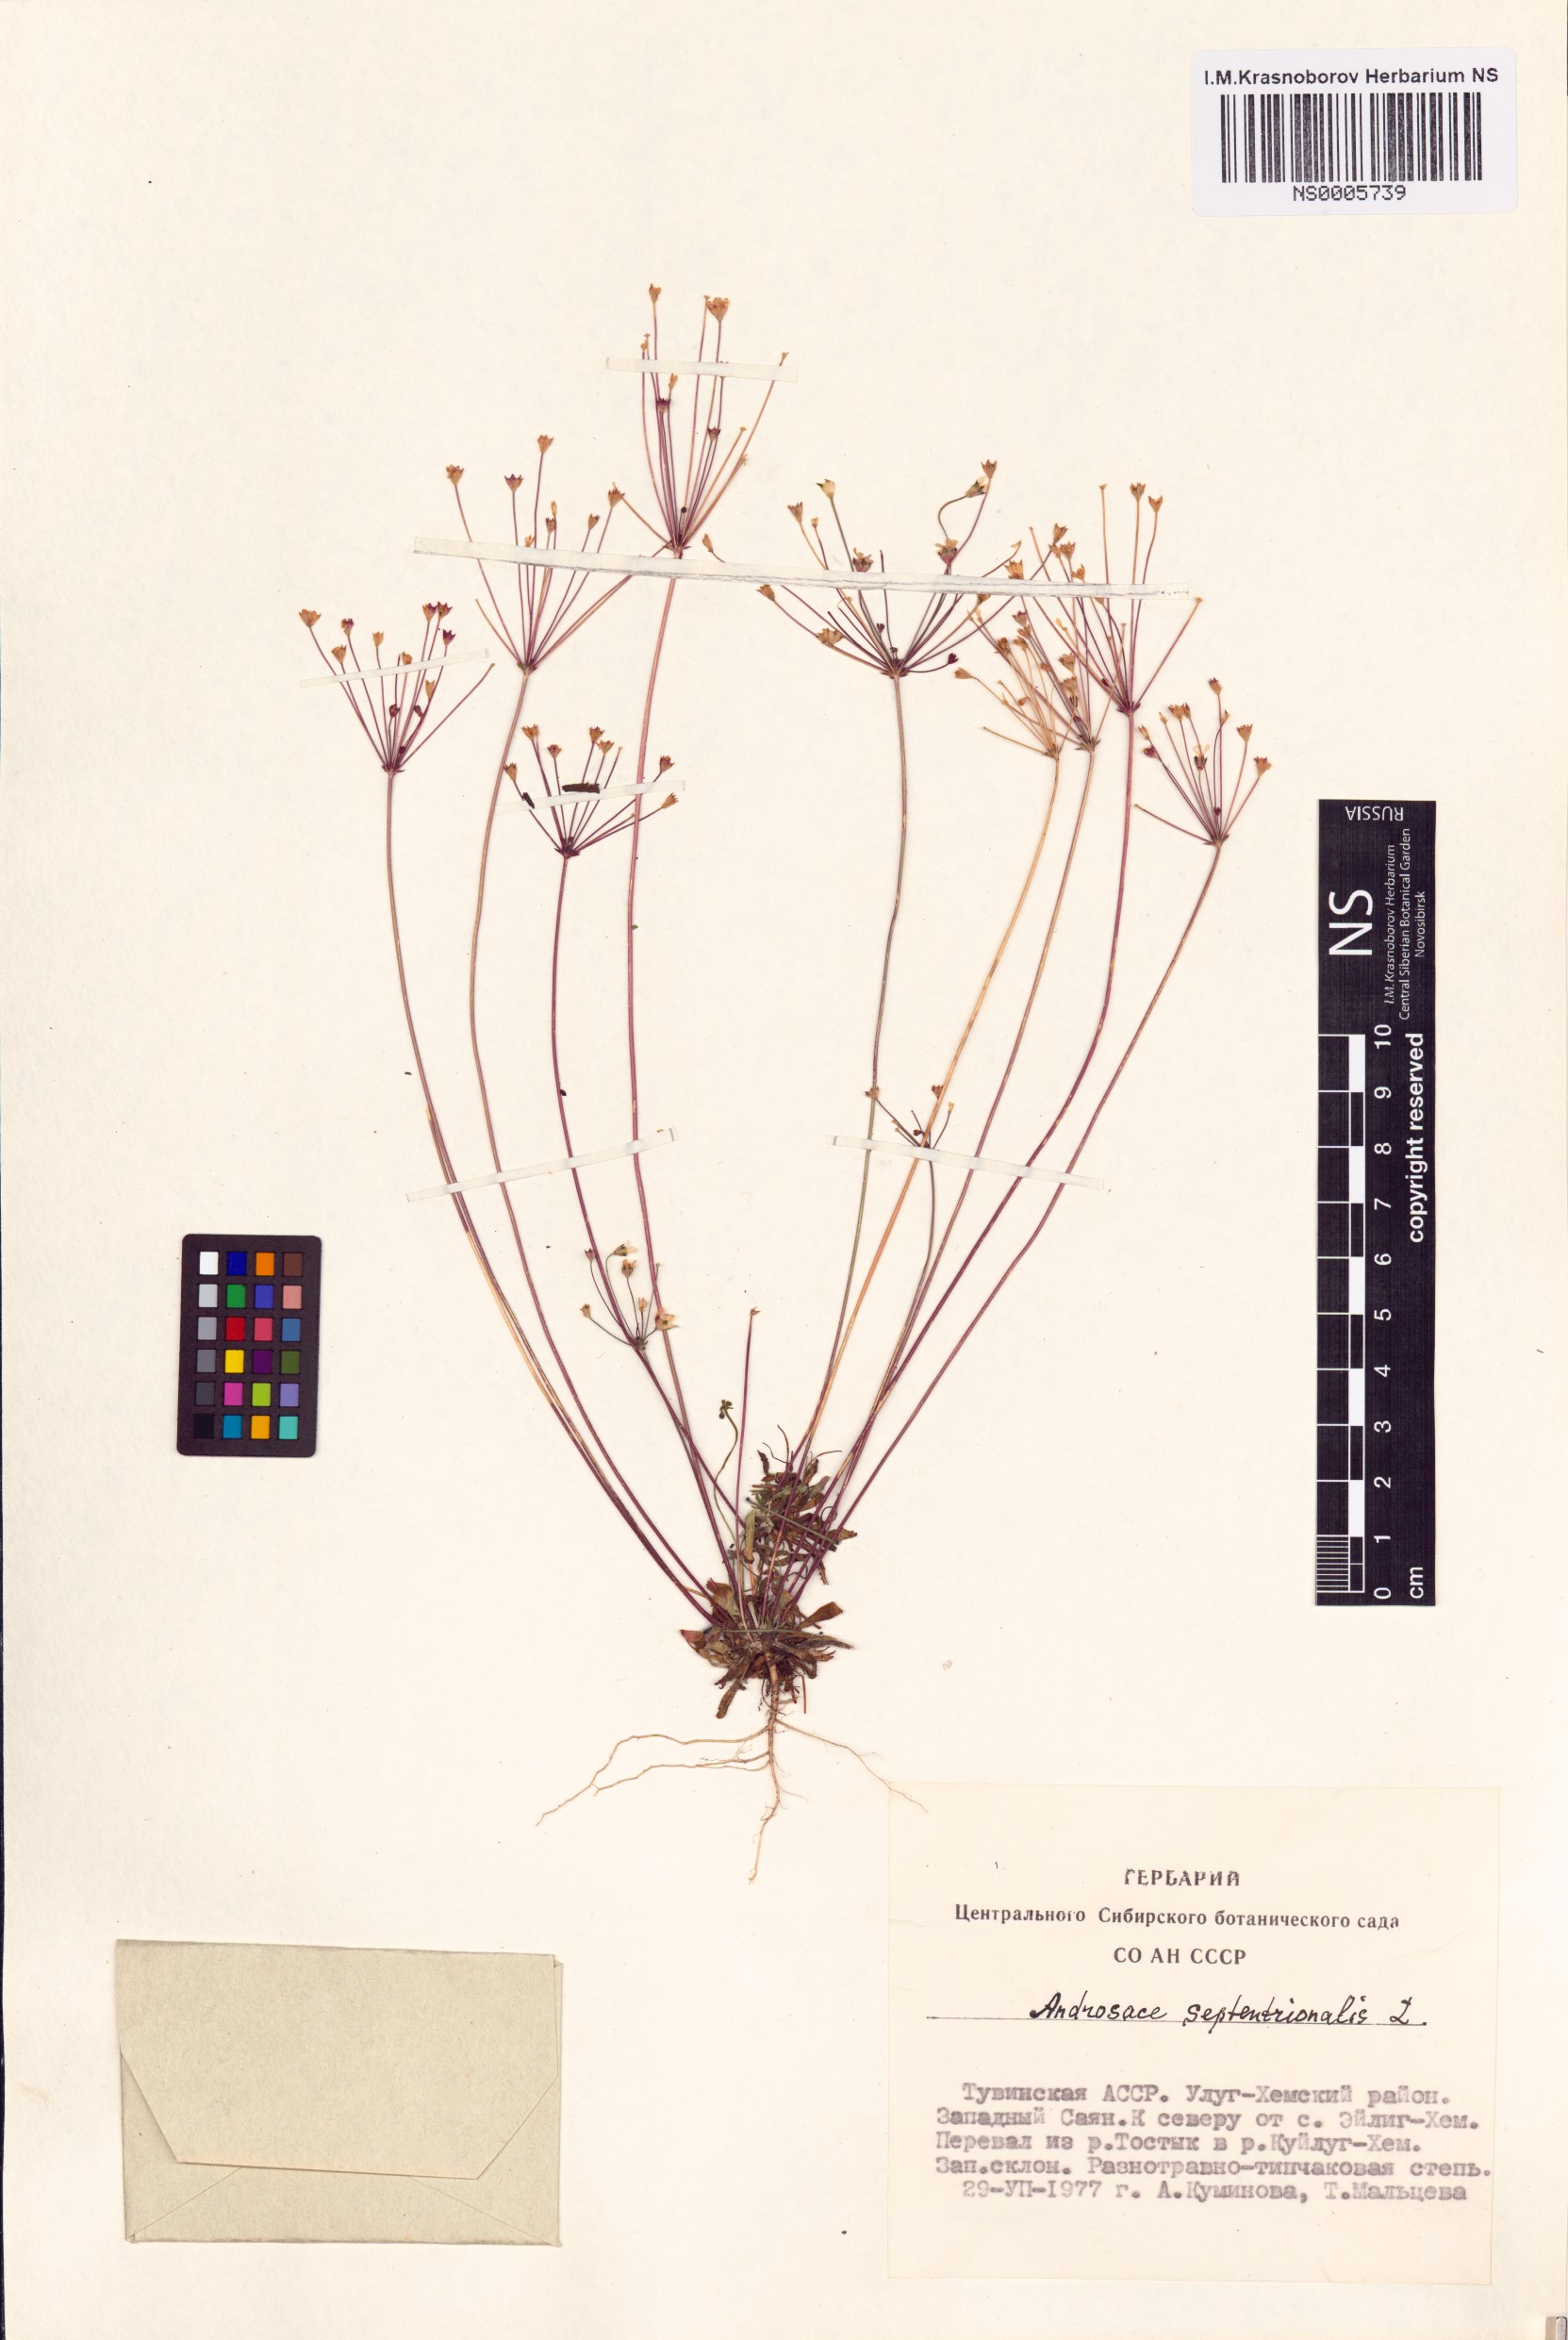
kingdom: Plantae
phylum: Tracheophyta
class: Magnoliopsida
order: Ericales
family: Primulaceae
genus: Androsace
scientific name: Androsace septentrionalis
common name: Hairy northern fairy-candelabra
